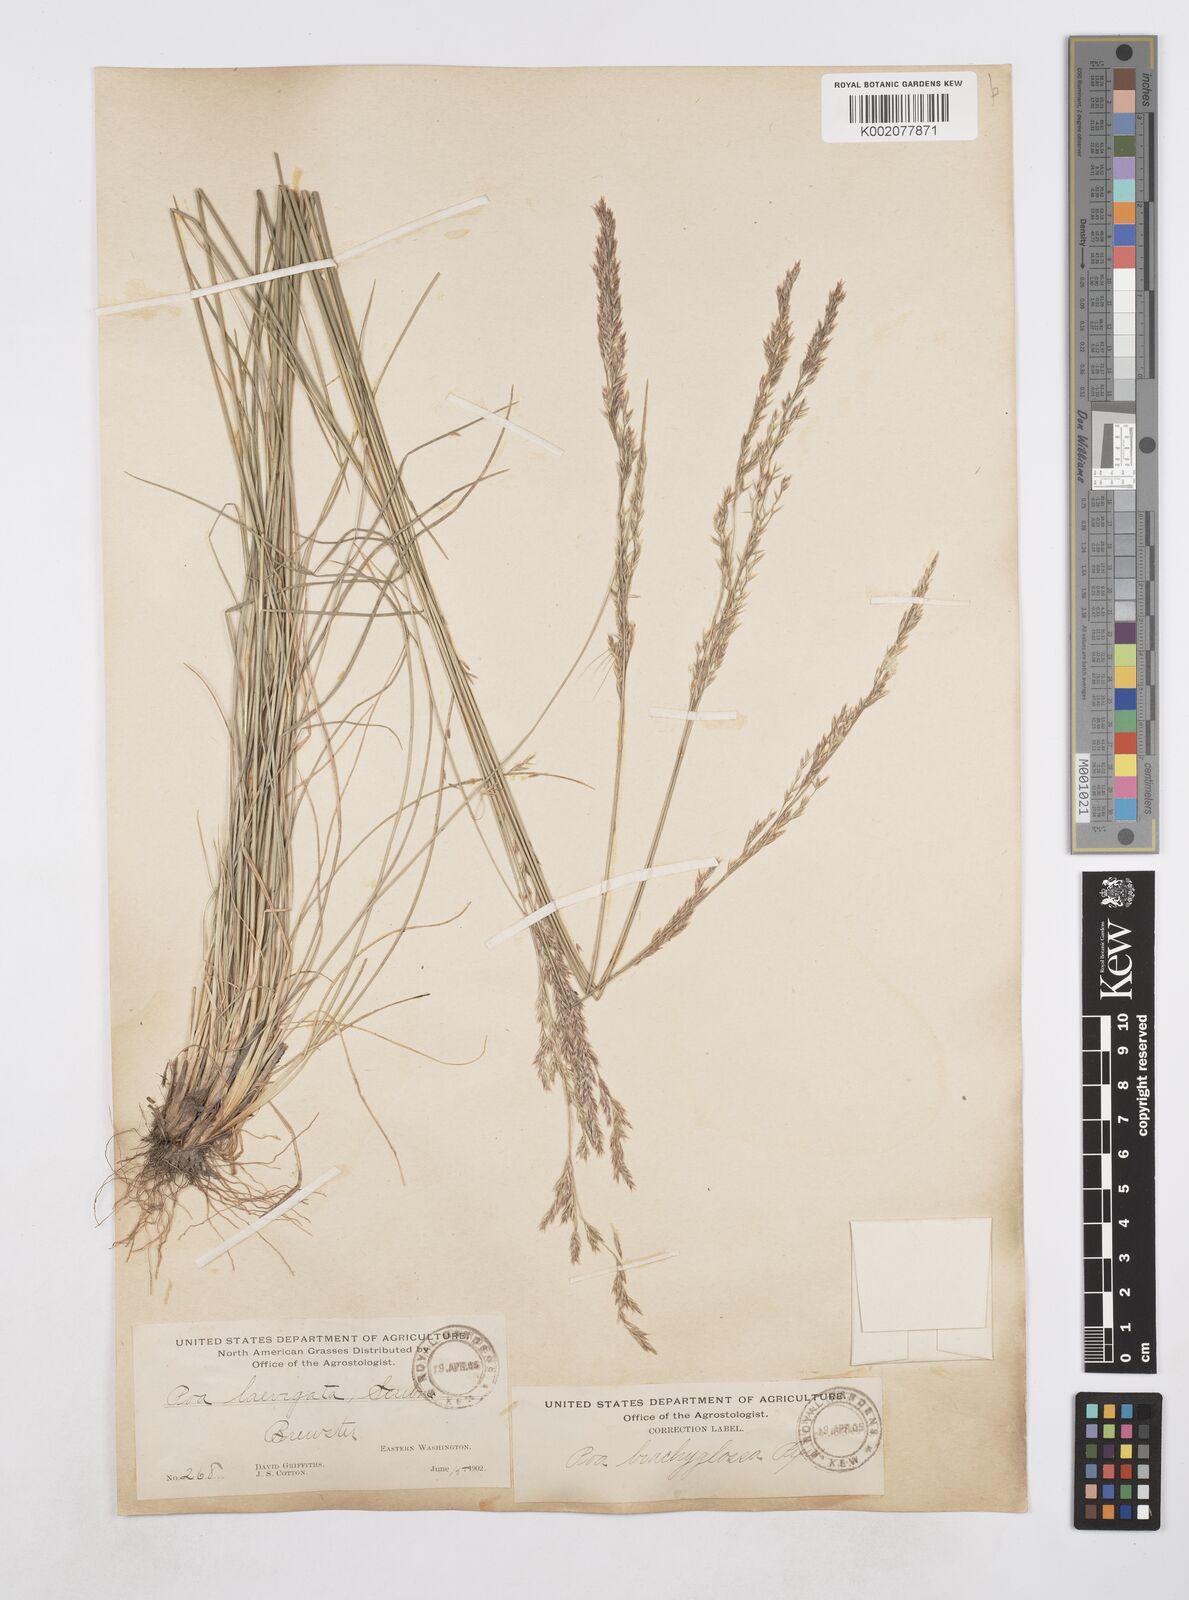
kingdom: Plantae
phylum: Tracheophyta
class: Liliopsida
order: Poales
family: Poaceae
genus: Poa
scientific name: Poa secunda
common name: Sandberg bluegrass
